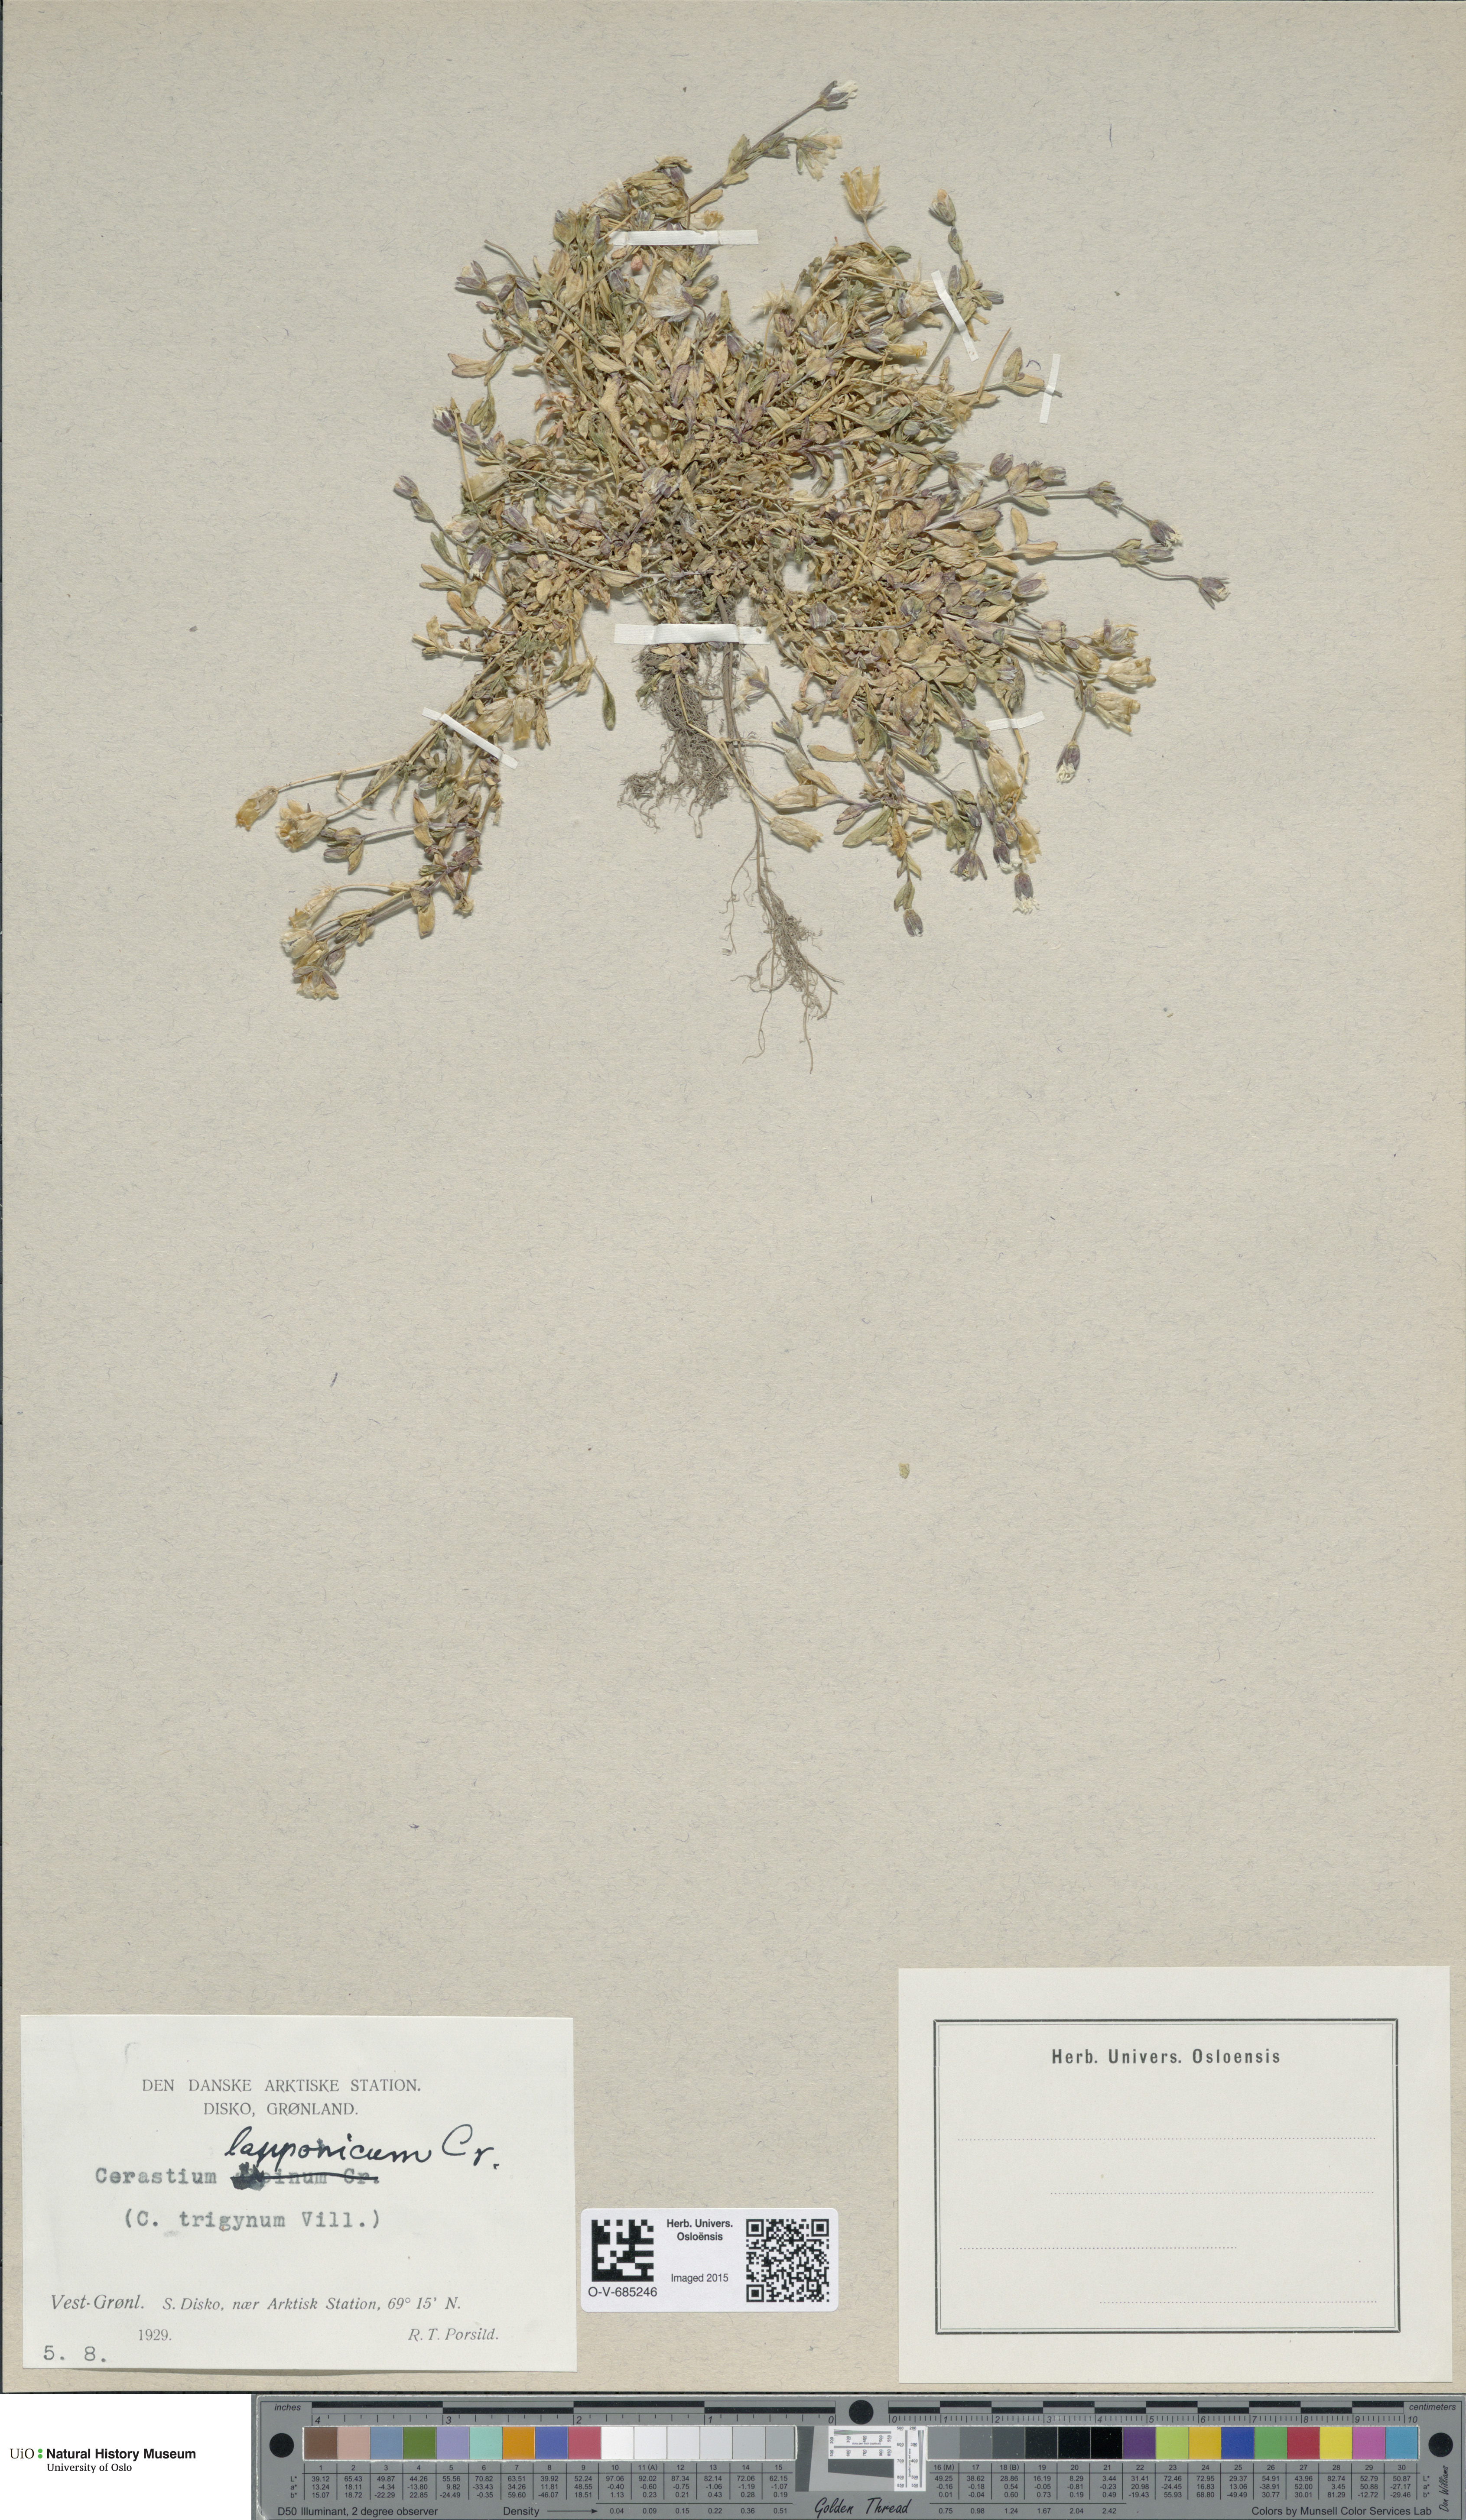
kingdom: Plantae
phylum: Tracheophyta
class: Magnoliopsida
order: Caryophyllales
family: Caryophyllaceae
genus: Dichodon
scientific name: Dichodon cerastoides
